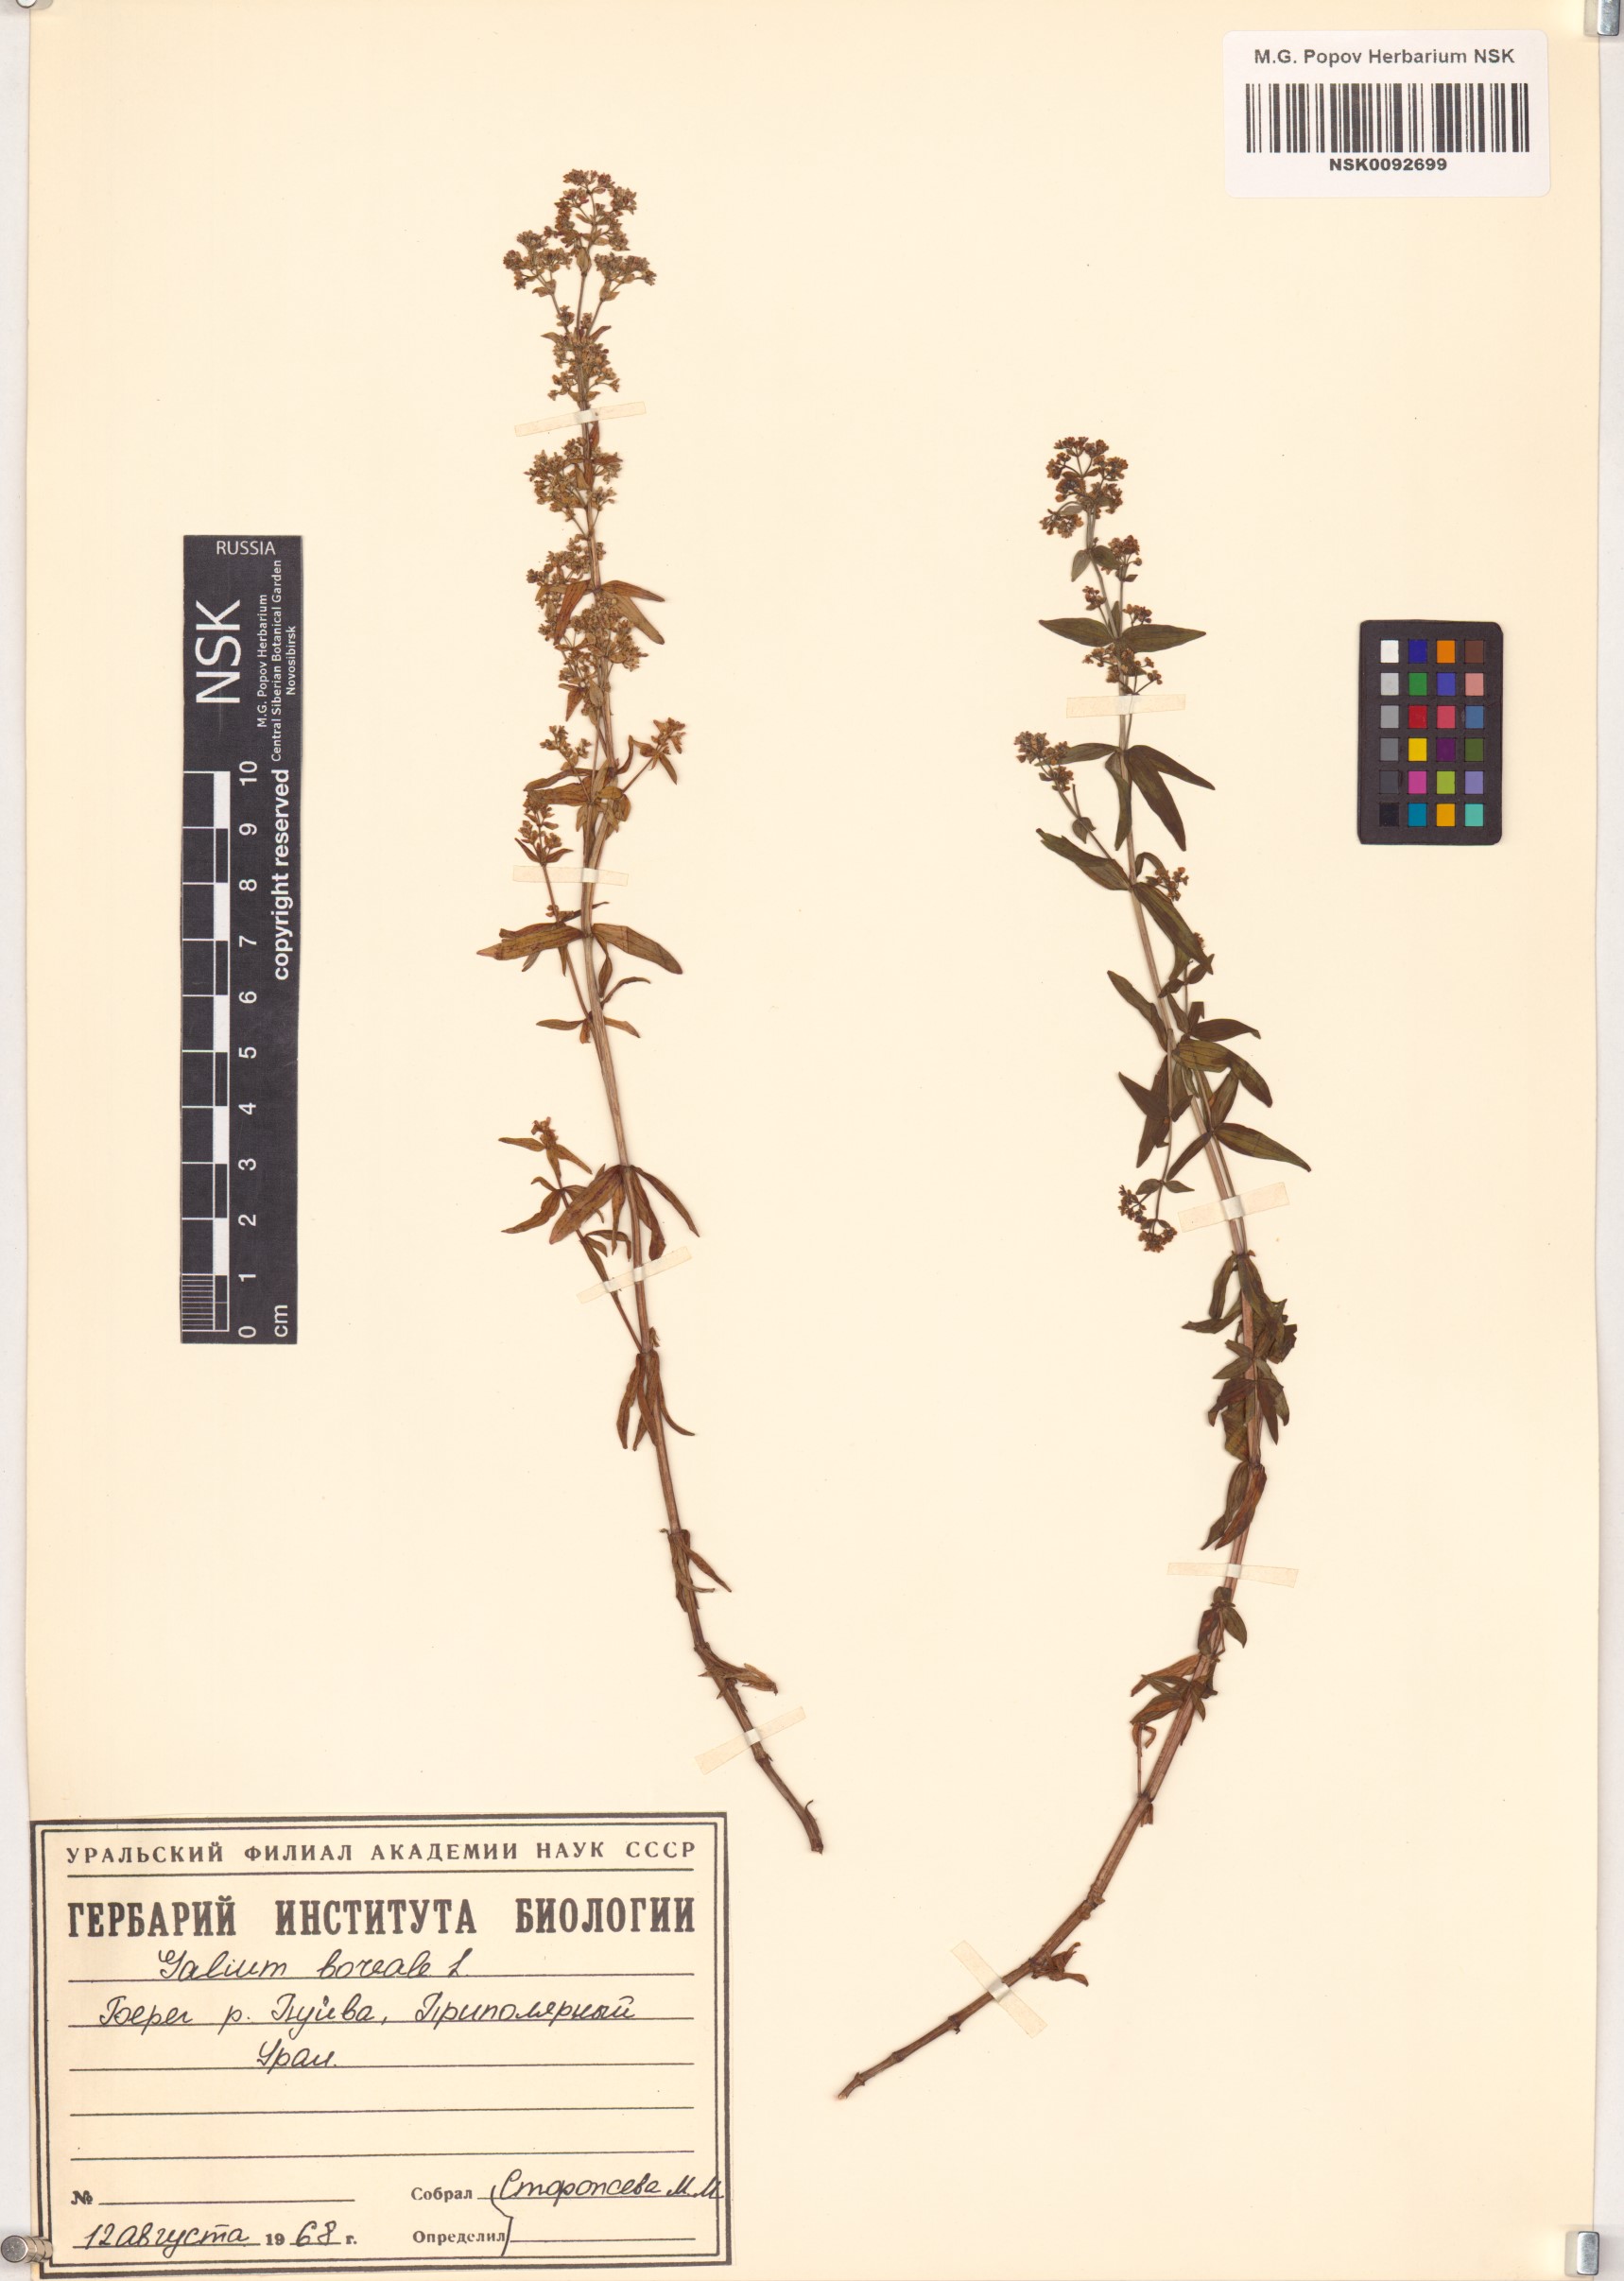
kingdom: Plantae
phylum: Tracheophyta
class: Magnoliopsida
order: Gentianales
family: Rubiaceae
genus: Galium
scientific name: Galium boreale
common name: Northern bedstraw
